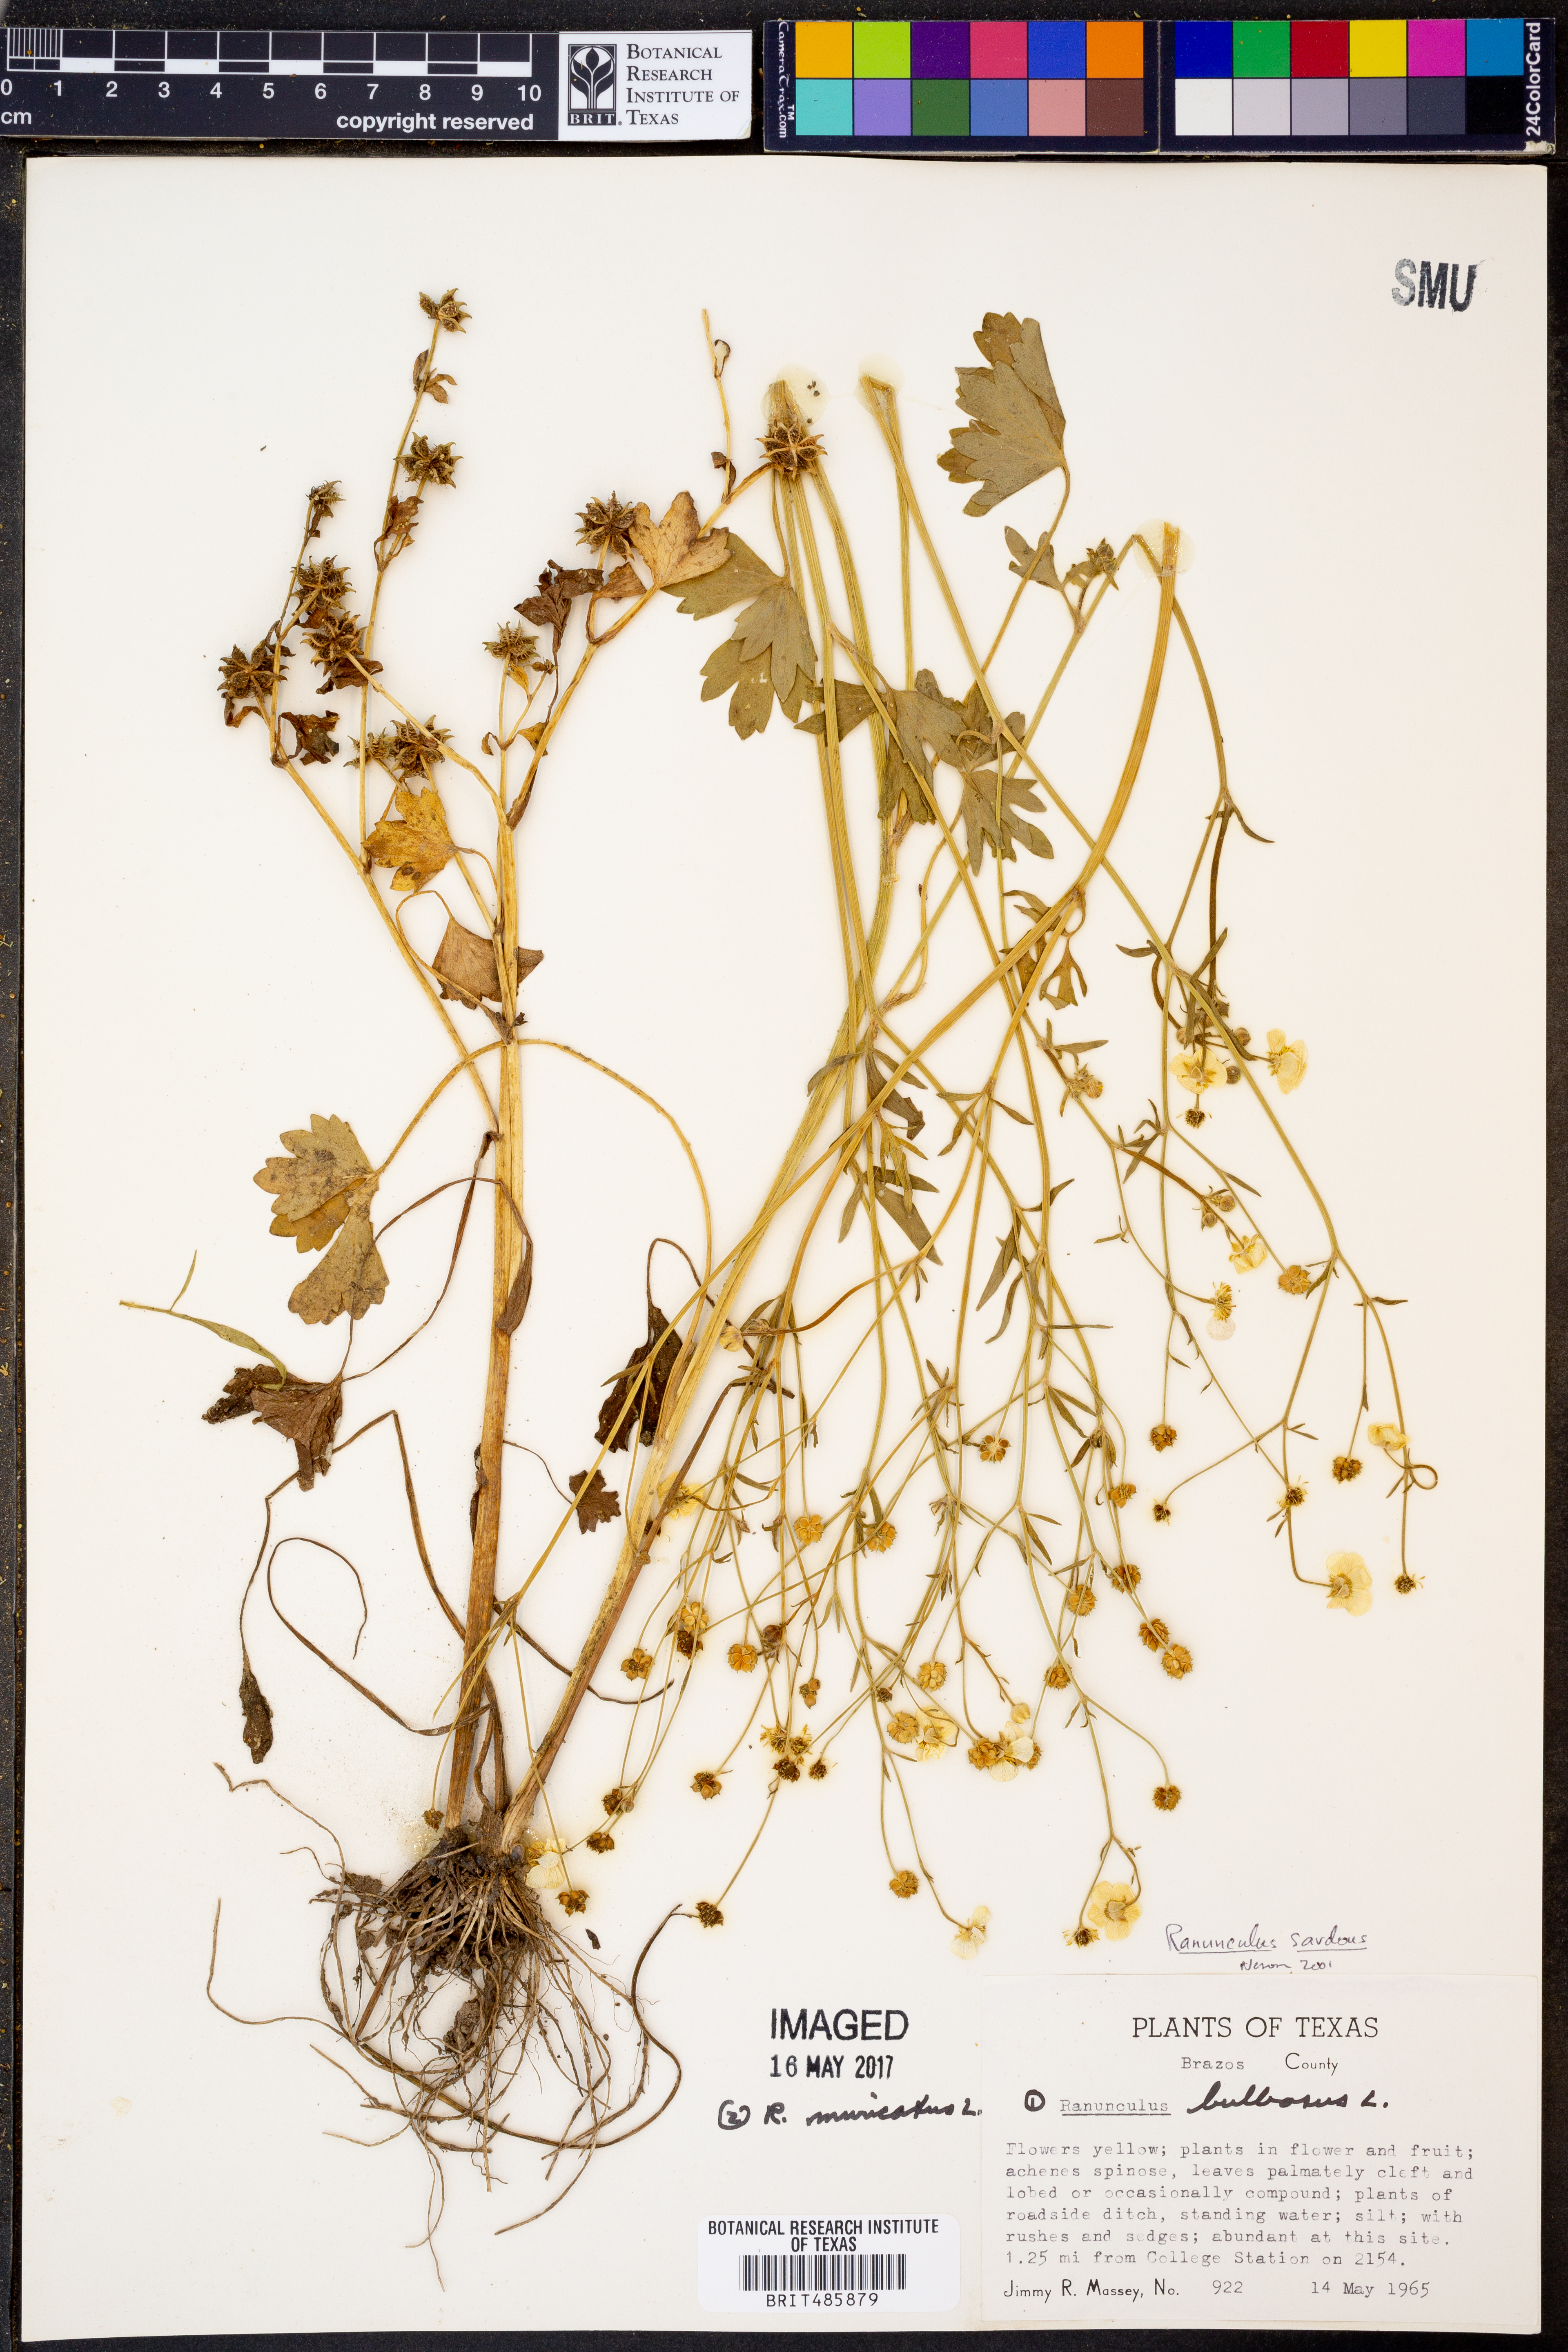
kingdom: Plantae
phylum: Tracheophyta
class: Magnoliopsida
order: Ranunculales
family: Ranunculaceae
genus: Ranunculus
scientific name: Ranunculus sardous
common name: Hairy buttercup
